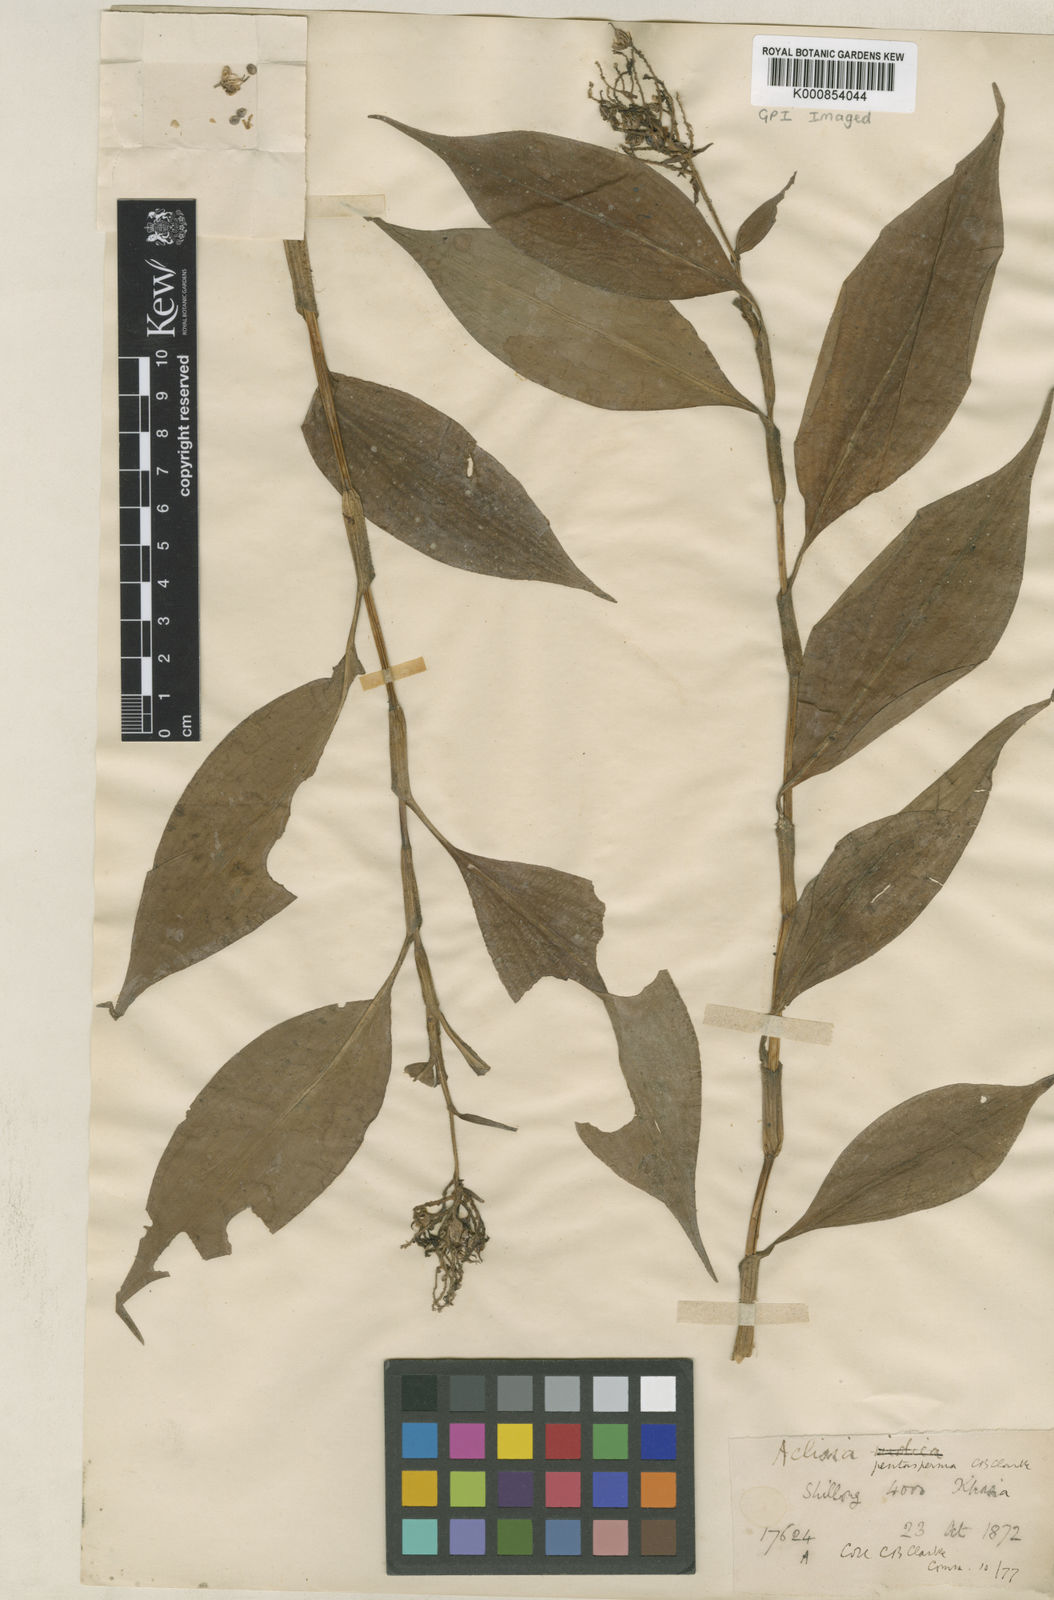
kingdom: Plantae
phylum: Tracheophyta
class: Liliopsida
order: Commelinales
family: Commelinaceae
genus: Pollia
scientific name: Pollia pentasperma
